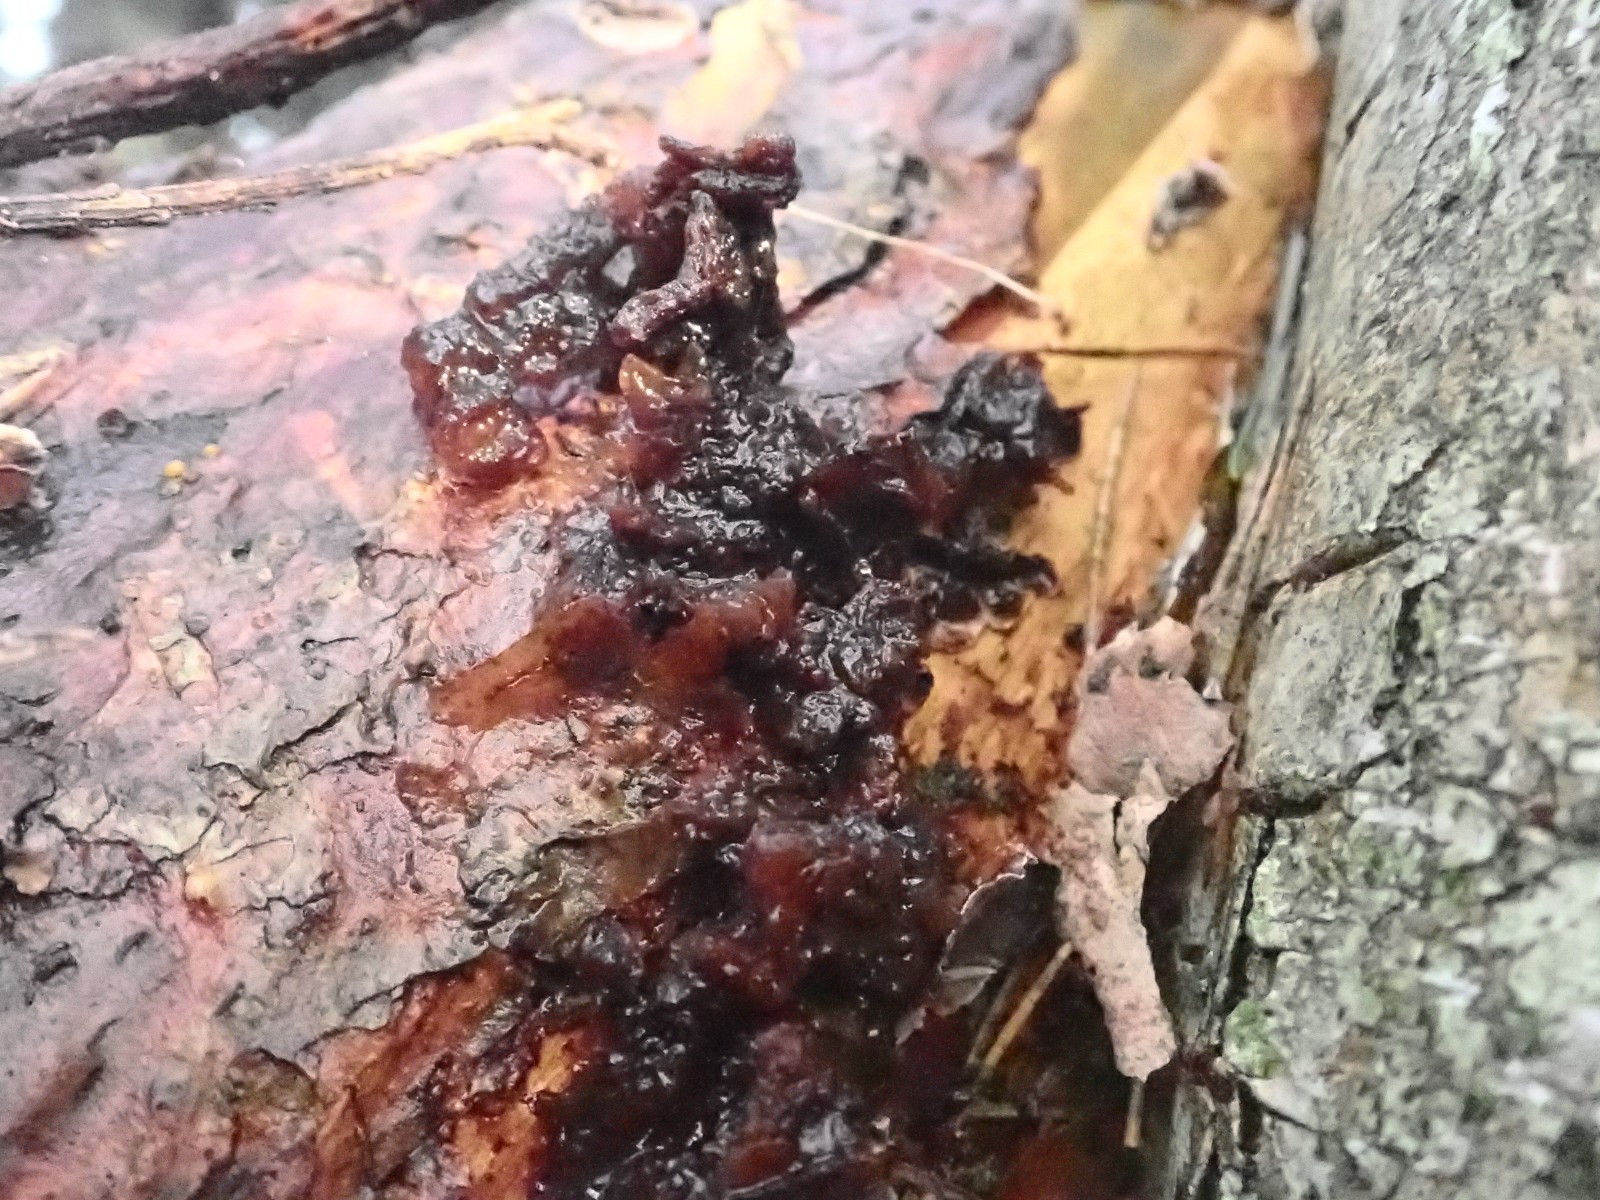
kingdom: Fungi
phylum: Basidiomycota
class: Tremellomycetes
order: Tremellales
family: Tremellaceae
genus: Phaeotremella
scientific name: Phaeotremella foliacea
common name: brun bævresvamp
